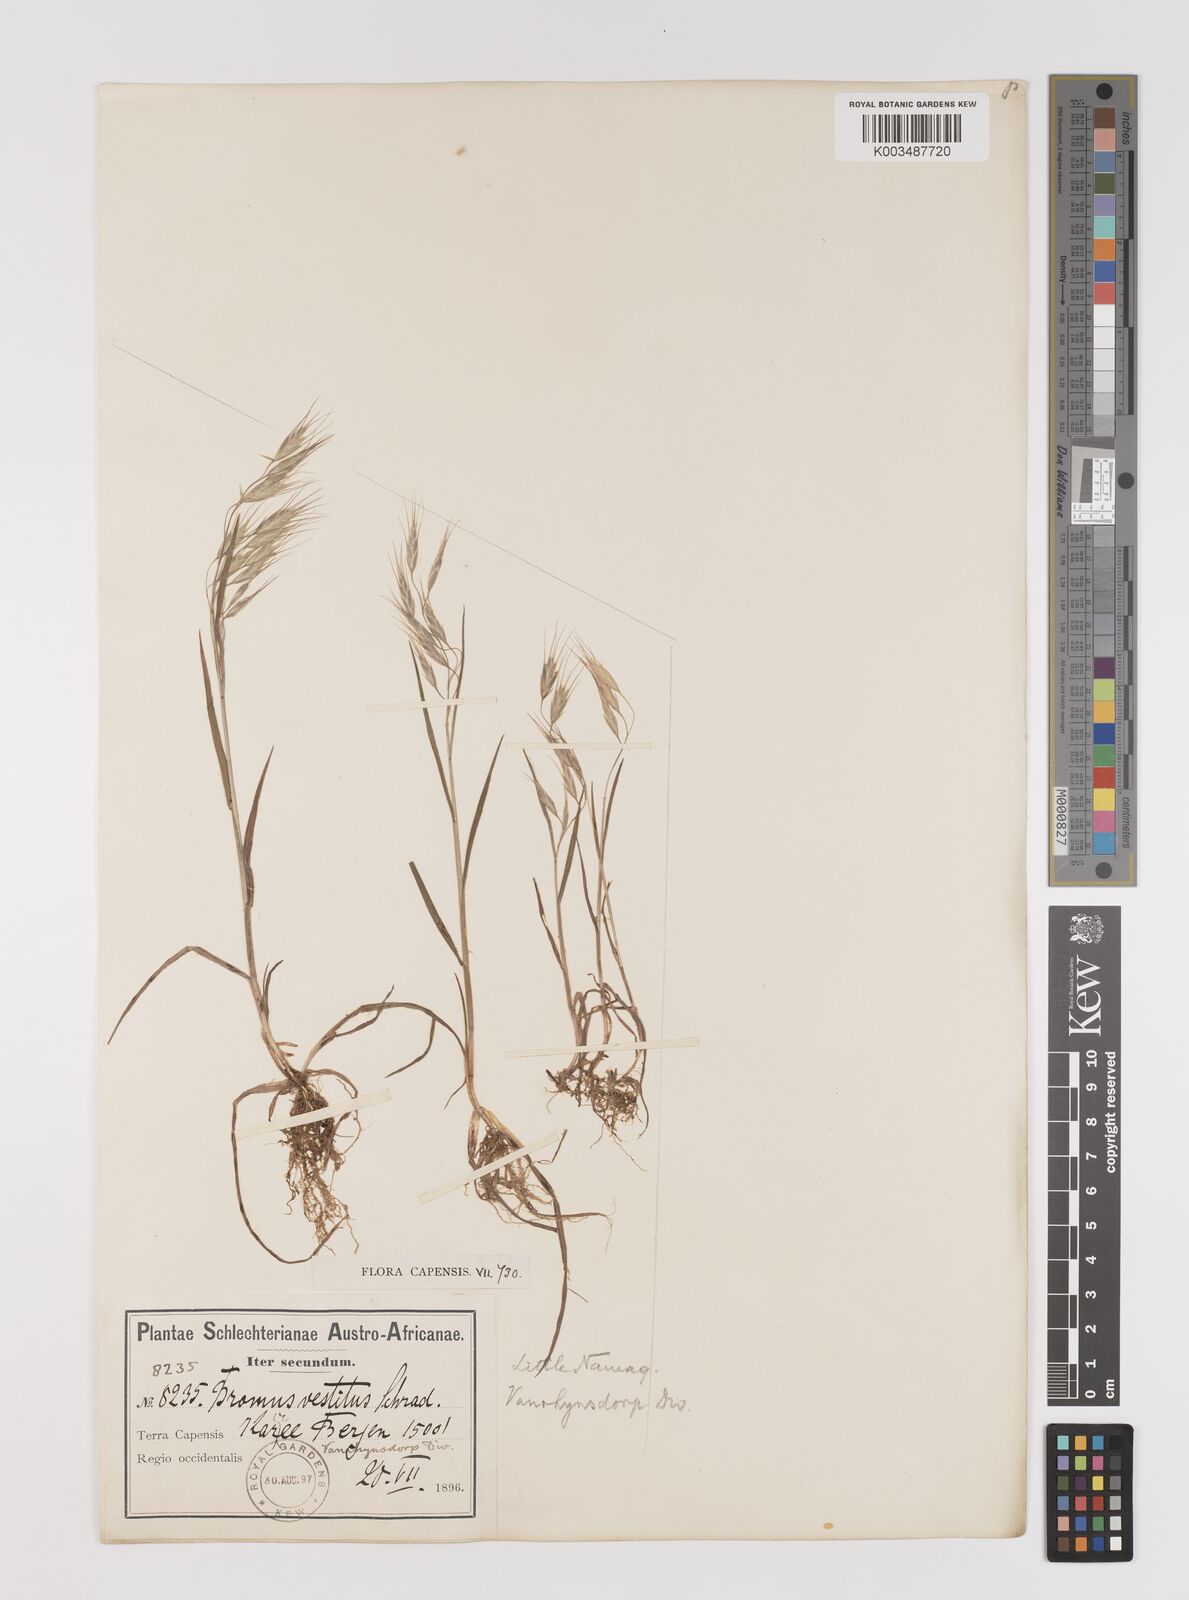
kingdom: Plantae
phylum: Tracheophyta
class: Liliopsida
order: Poales
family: Poaceae
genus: Bromus
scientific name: Bromus pectinatus
